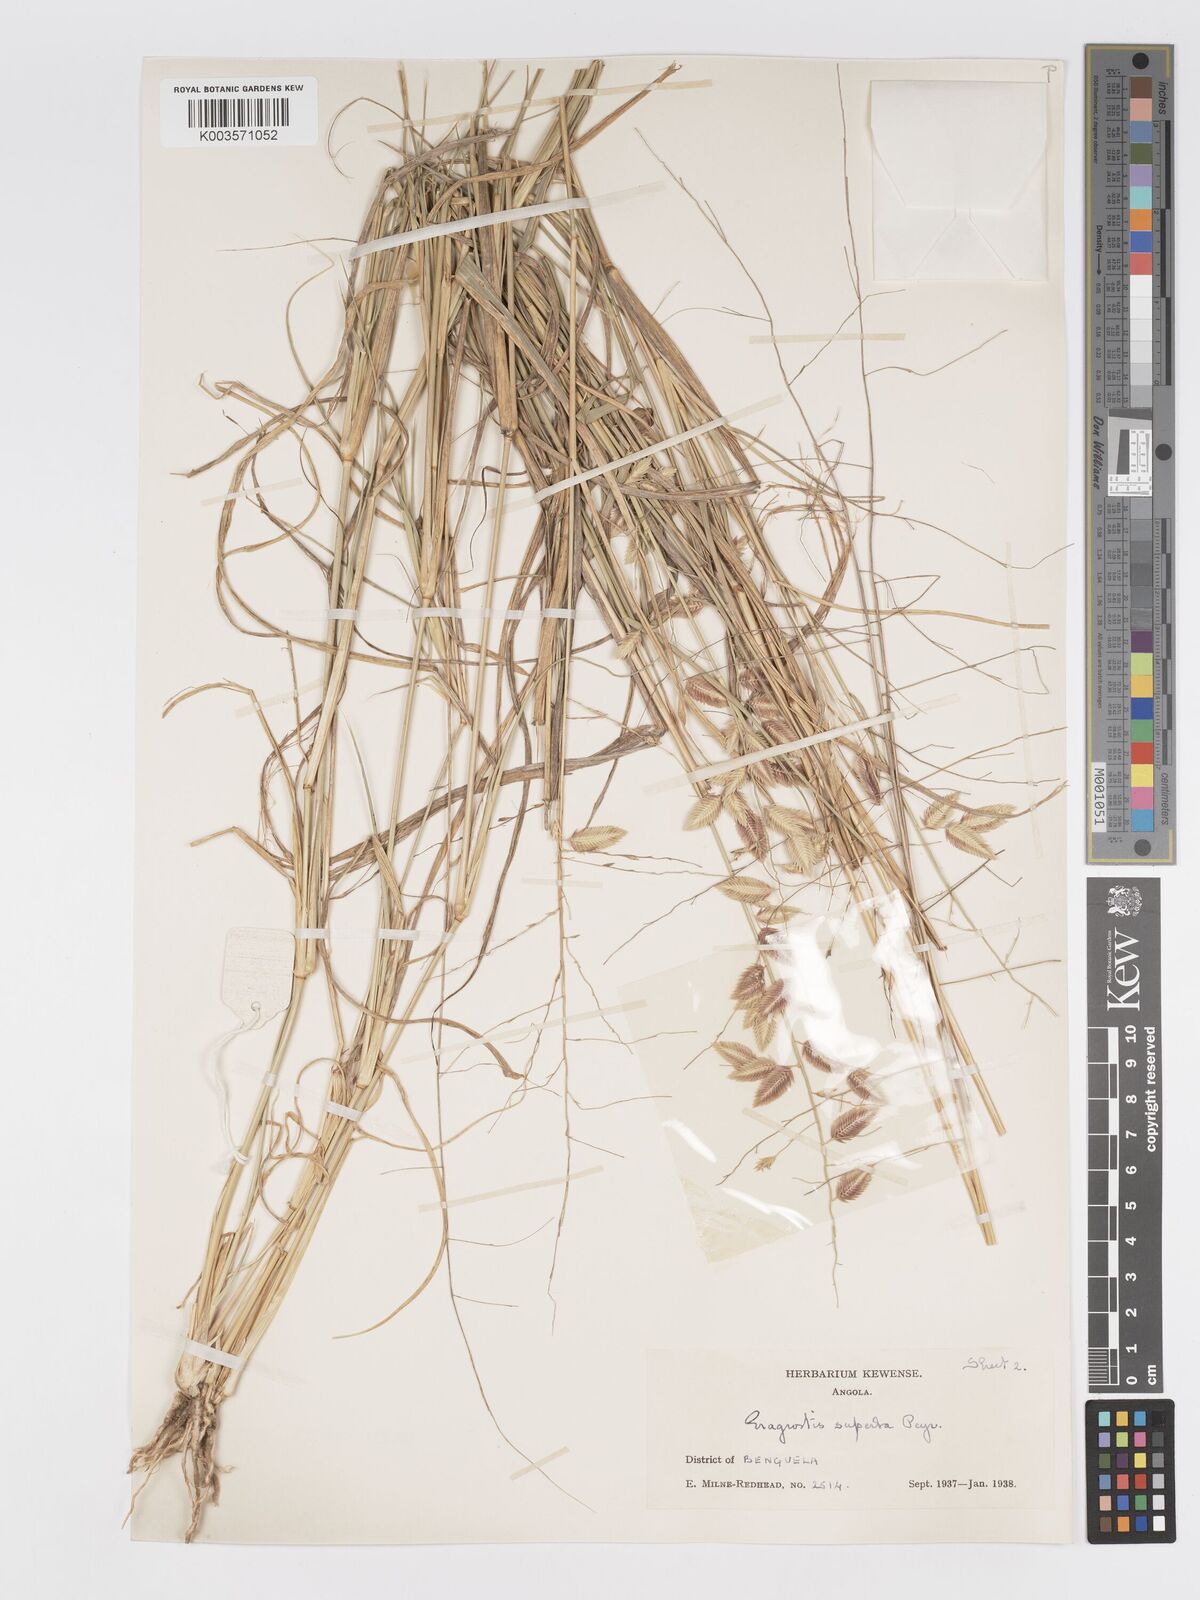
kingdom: Plantae
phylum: Tracheophyta
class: Liliopsida
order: Poales
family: Poaceae
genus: Eragrostis
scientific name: Eragrostis superba
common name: Wilman lovegrass
